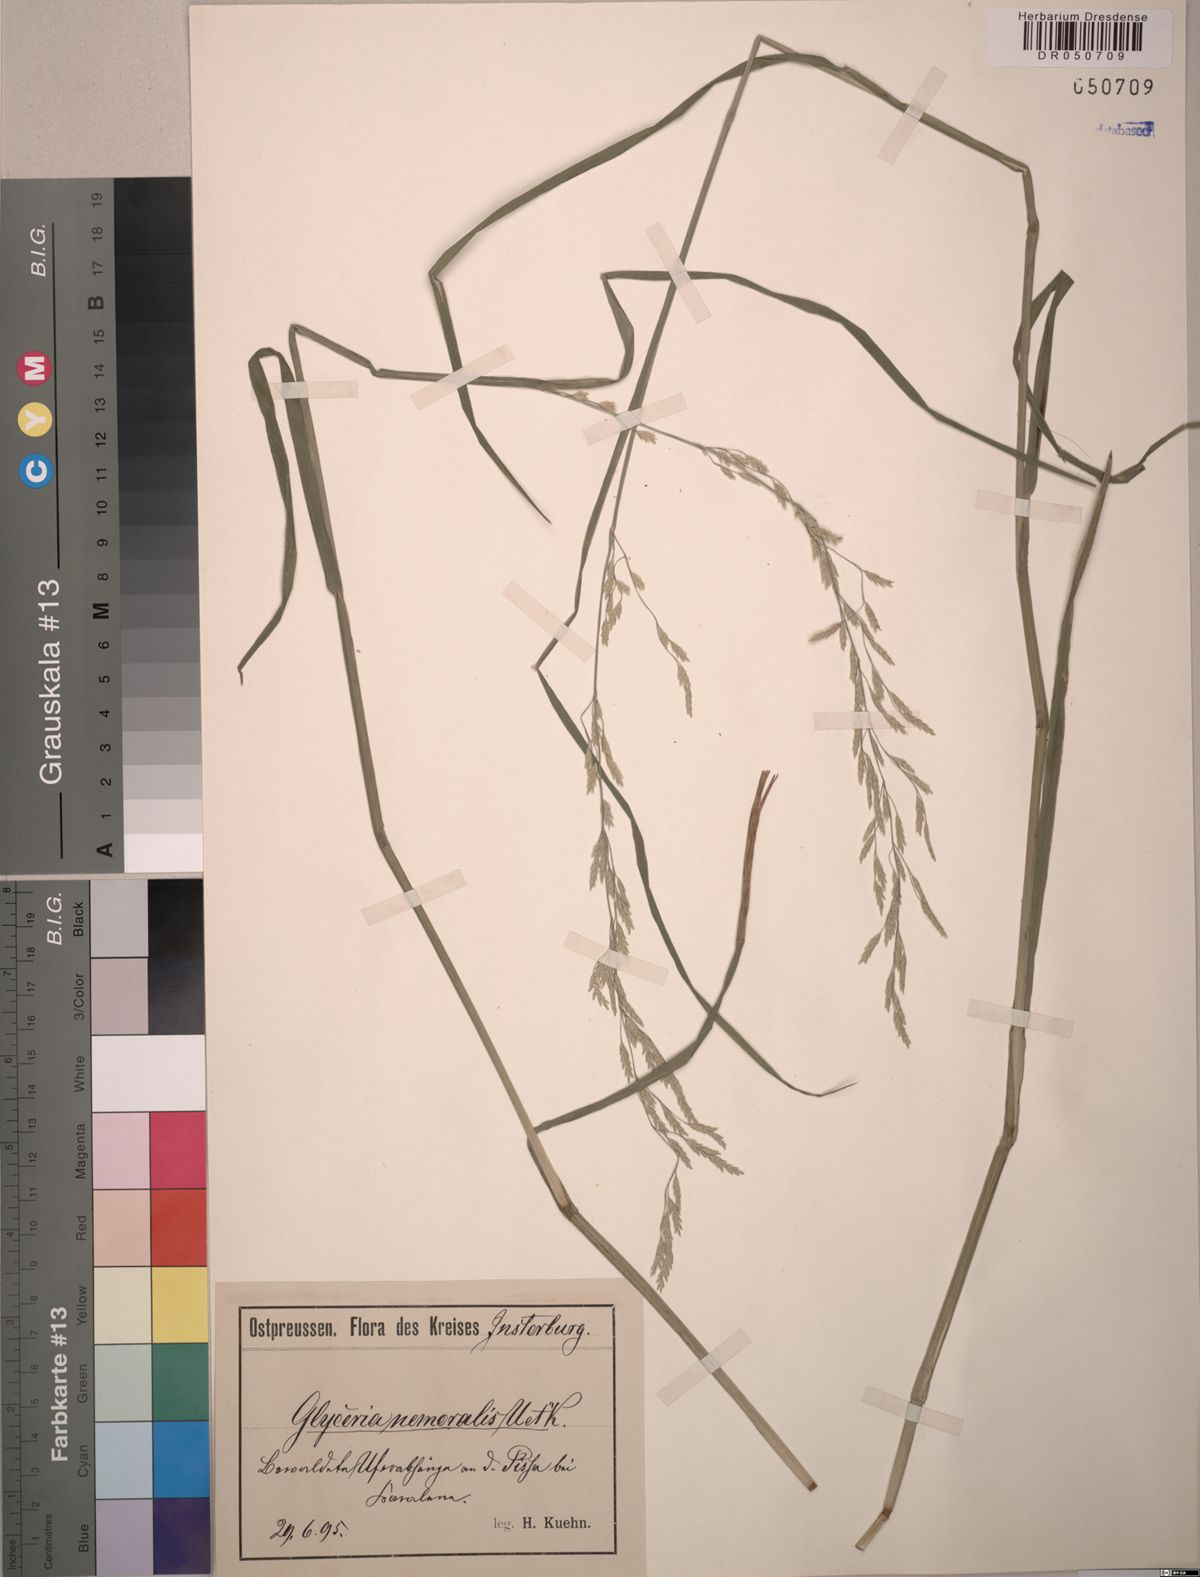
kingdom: Plantae
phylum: Tracheophyta
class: Liliopsida
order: Poales
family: Poaceae
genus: Glyceria
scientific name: Glyceria nemoralis
